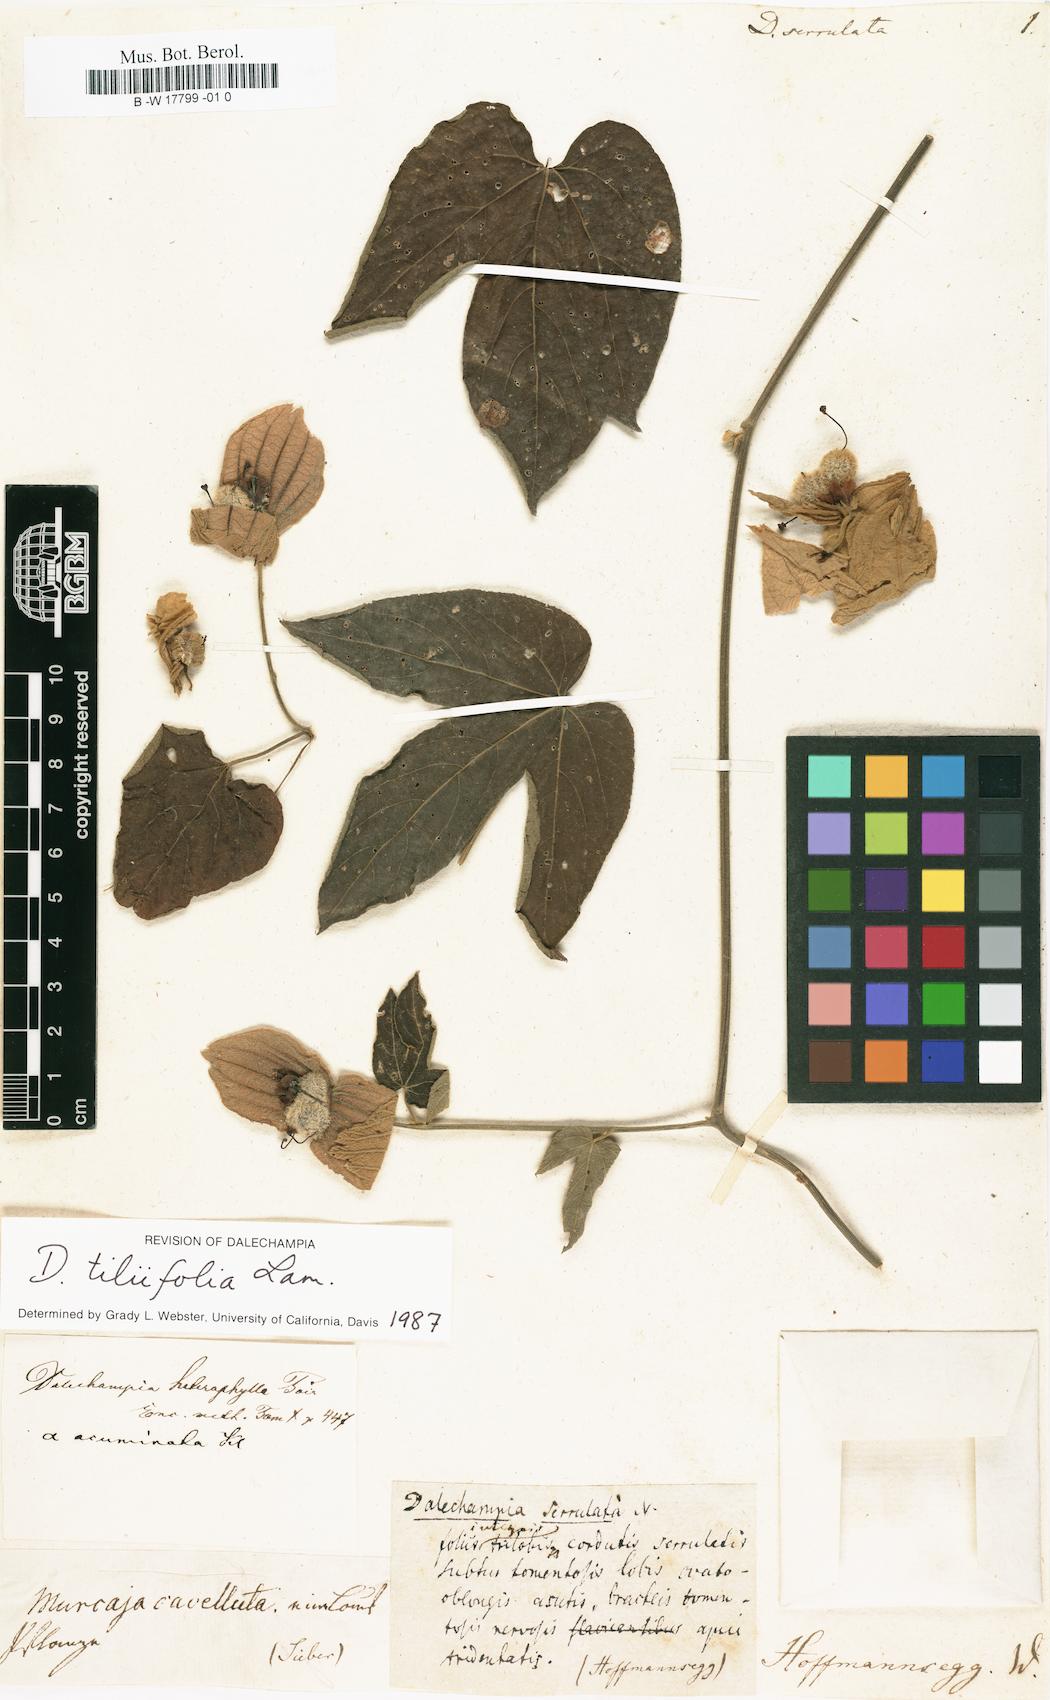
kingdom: Plantae
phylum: Tracheophyta
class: Magnoliopsida
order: Malpighiales
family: Euphorbiaceae
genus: Dalechampia
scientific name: Dalechampia tiliifolia
